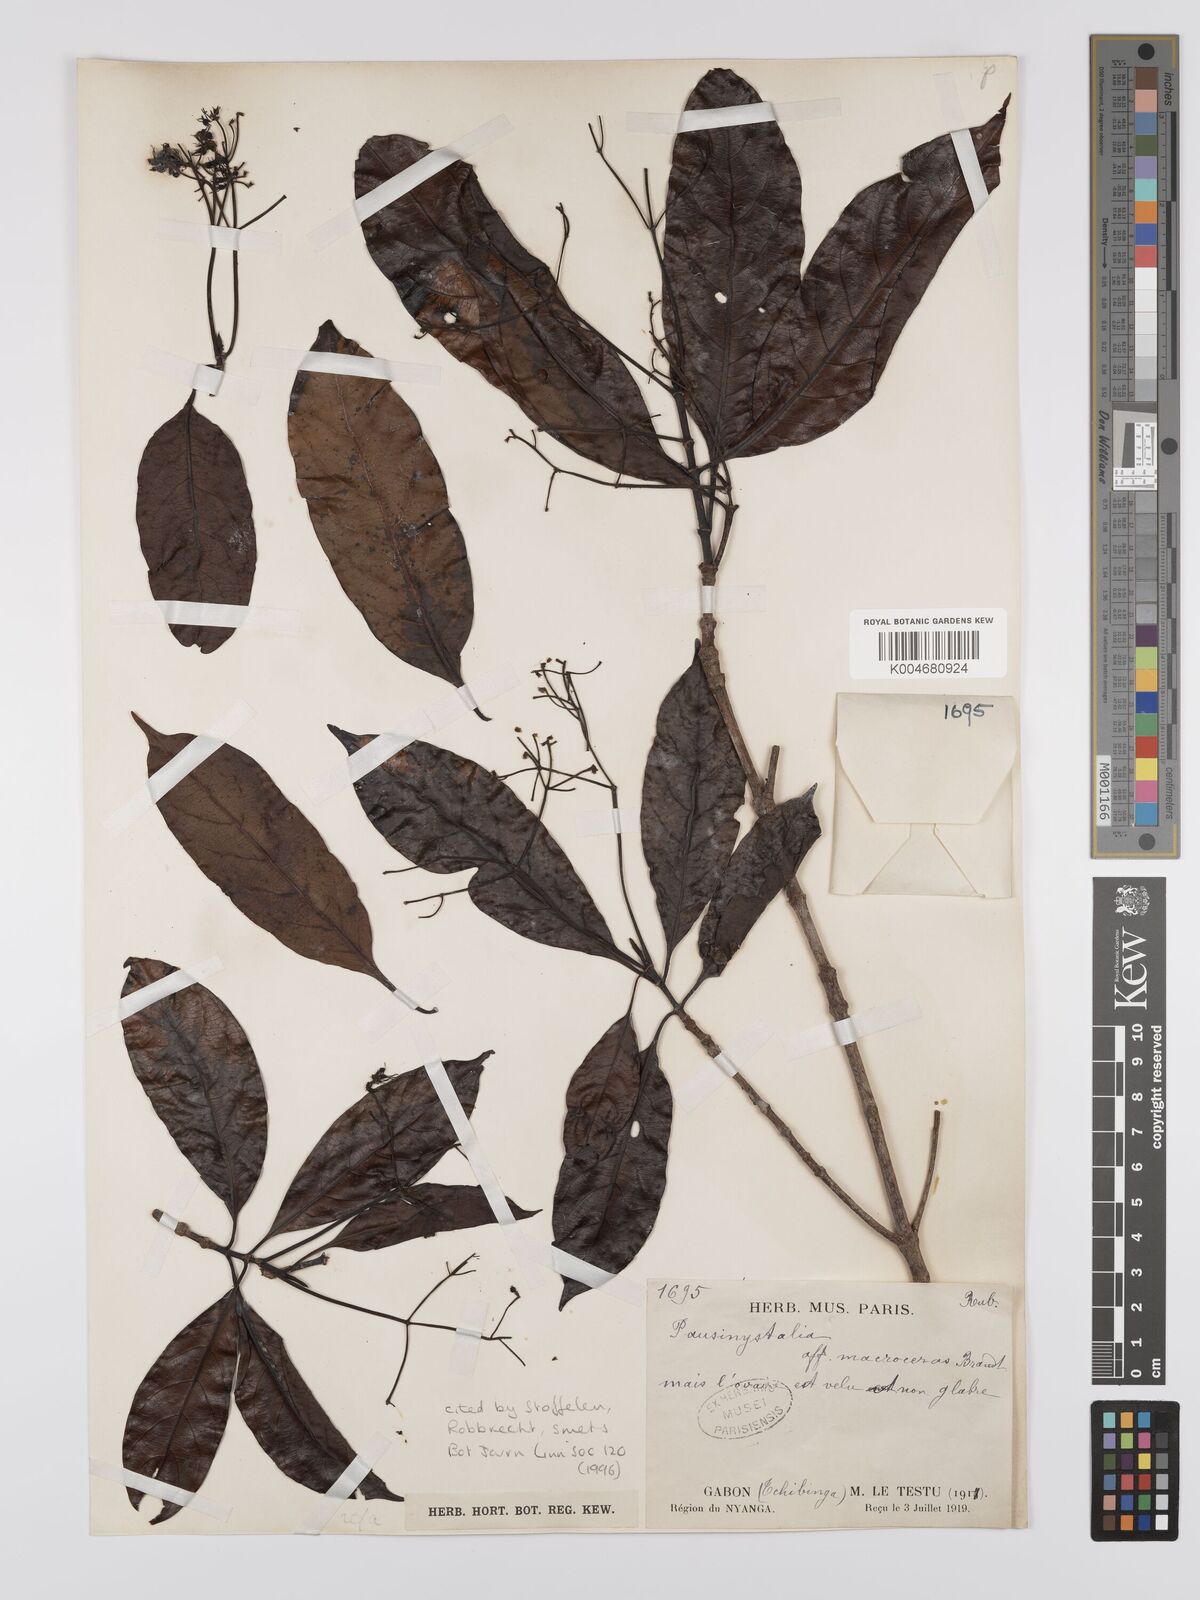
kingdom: Plantae
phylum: Tracheophyta
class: Magnoliopsida
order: Gentianales
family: Rubiaceae
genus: Corynanthe
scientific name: Corynanthe macroceras
